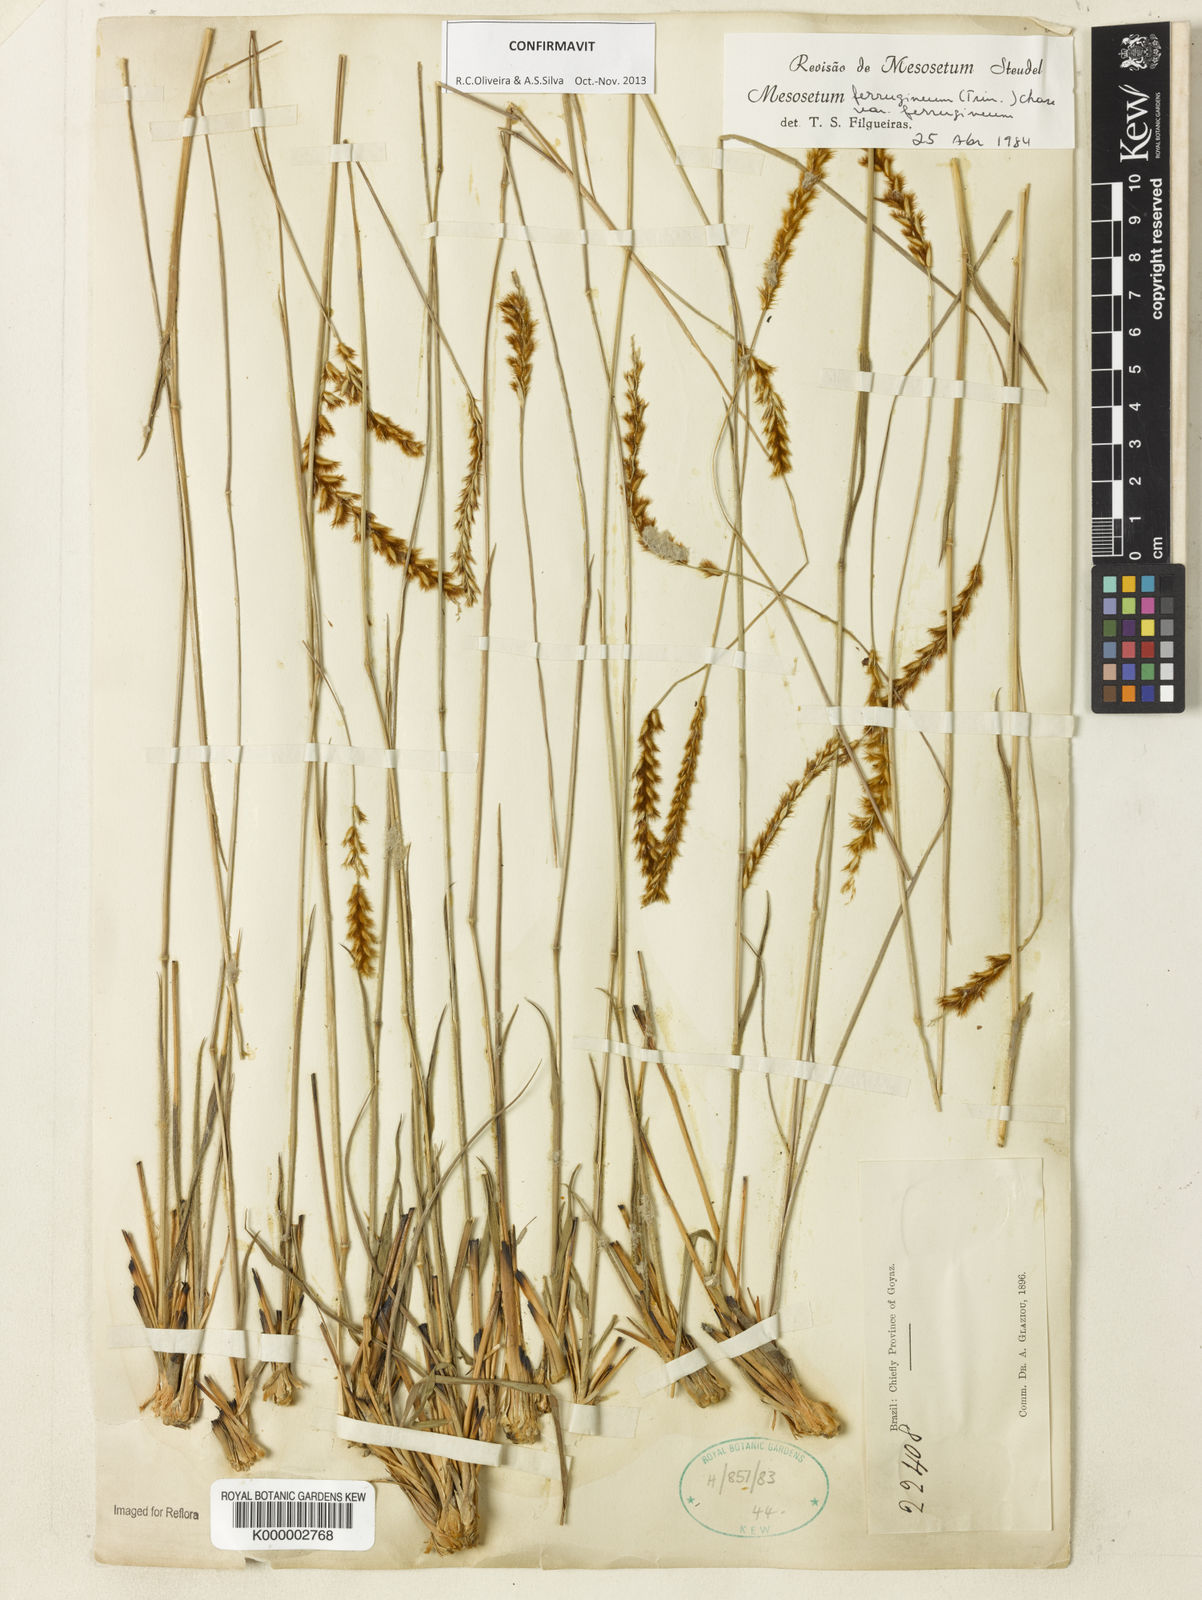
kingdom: Plantae
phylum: Tracheophyta
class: Liliopsida
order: Poales
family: Poaceae
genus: Mesosetum
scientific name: Mesosetum
